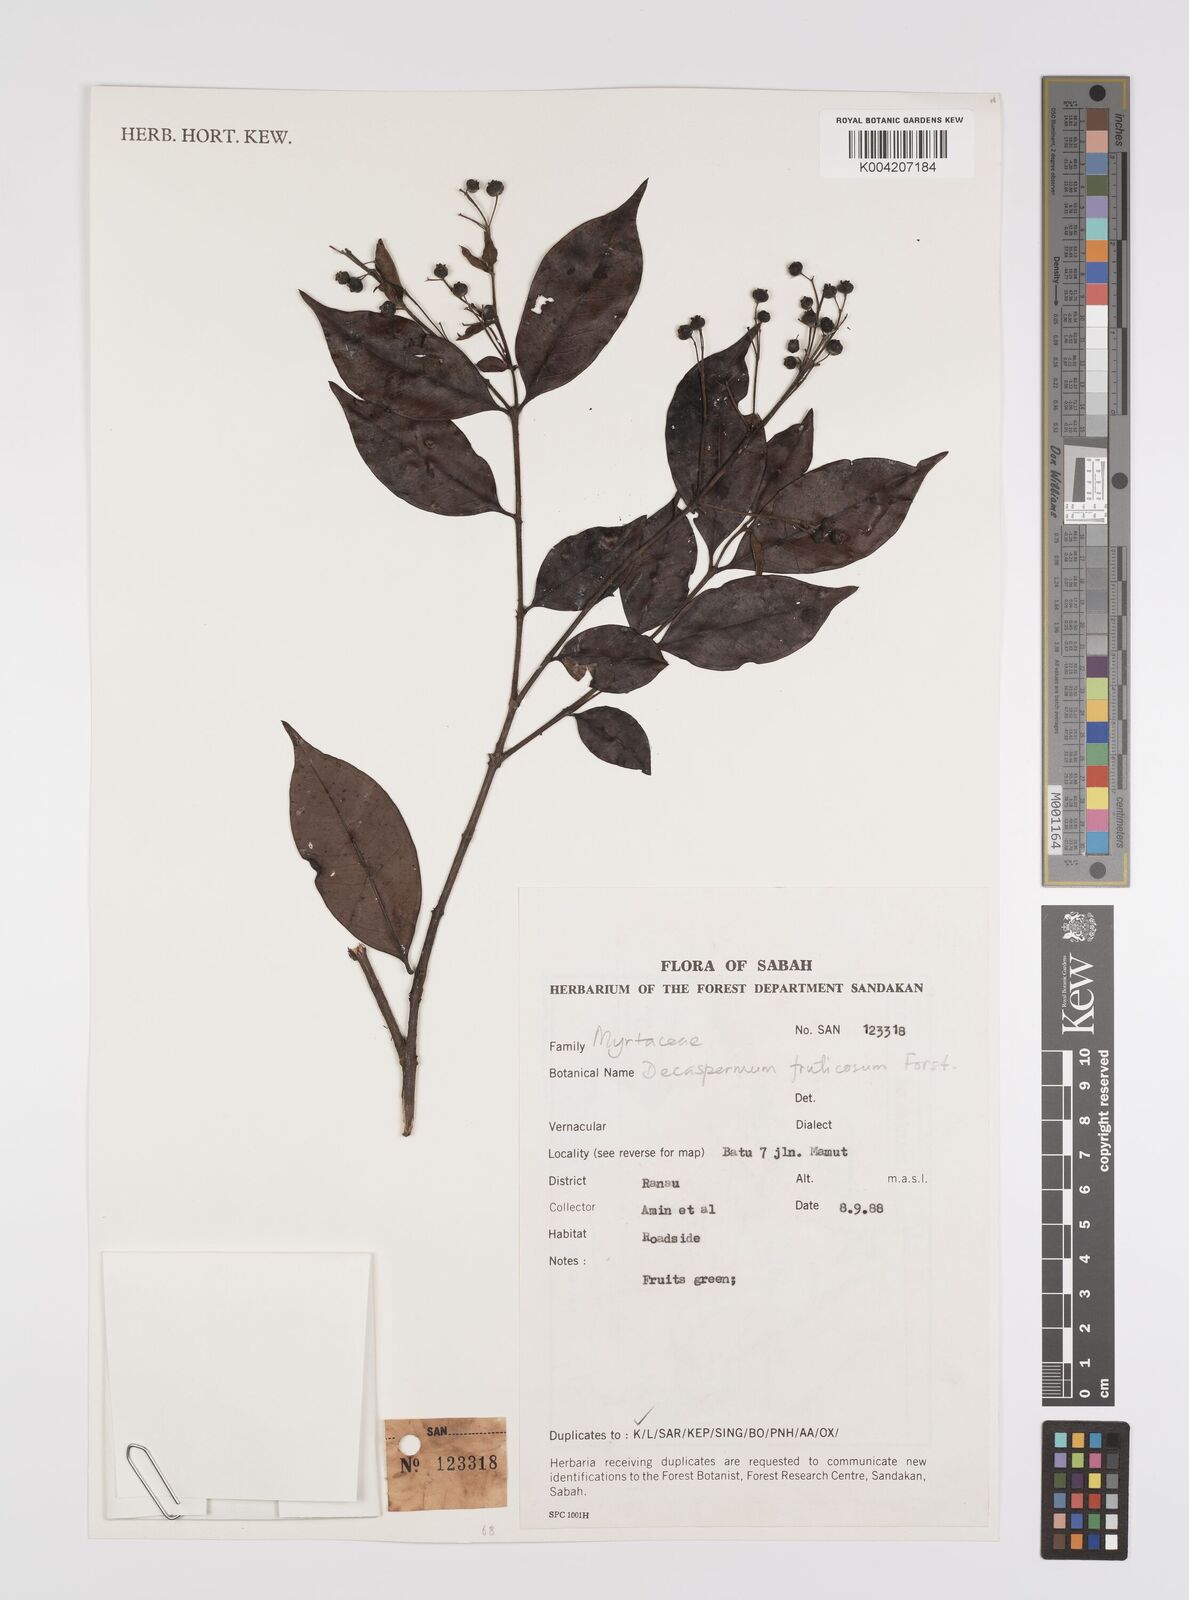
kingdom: Plantae
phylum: Tracheophyta
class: Magnoliopsida
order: Myrtales
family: Myrtaceae
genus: Decaspermum
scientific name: Decaspermum parviflorum
